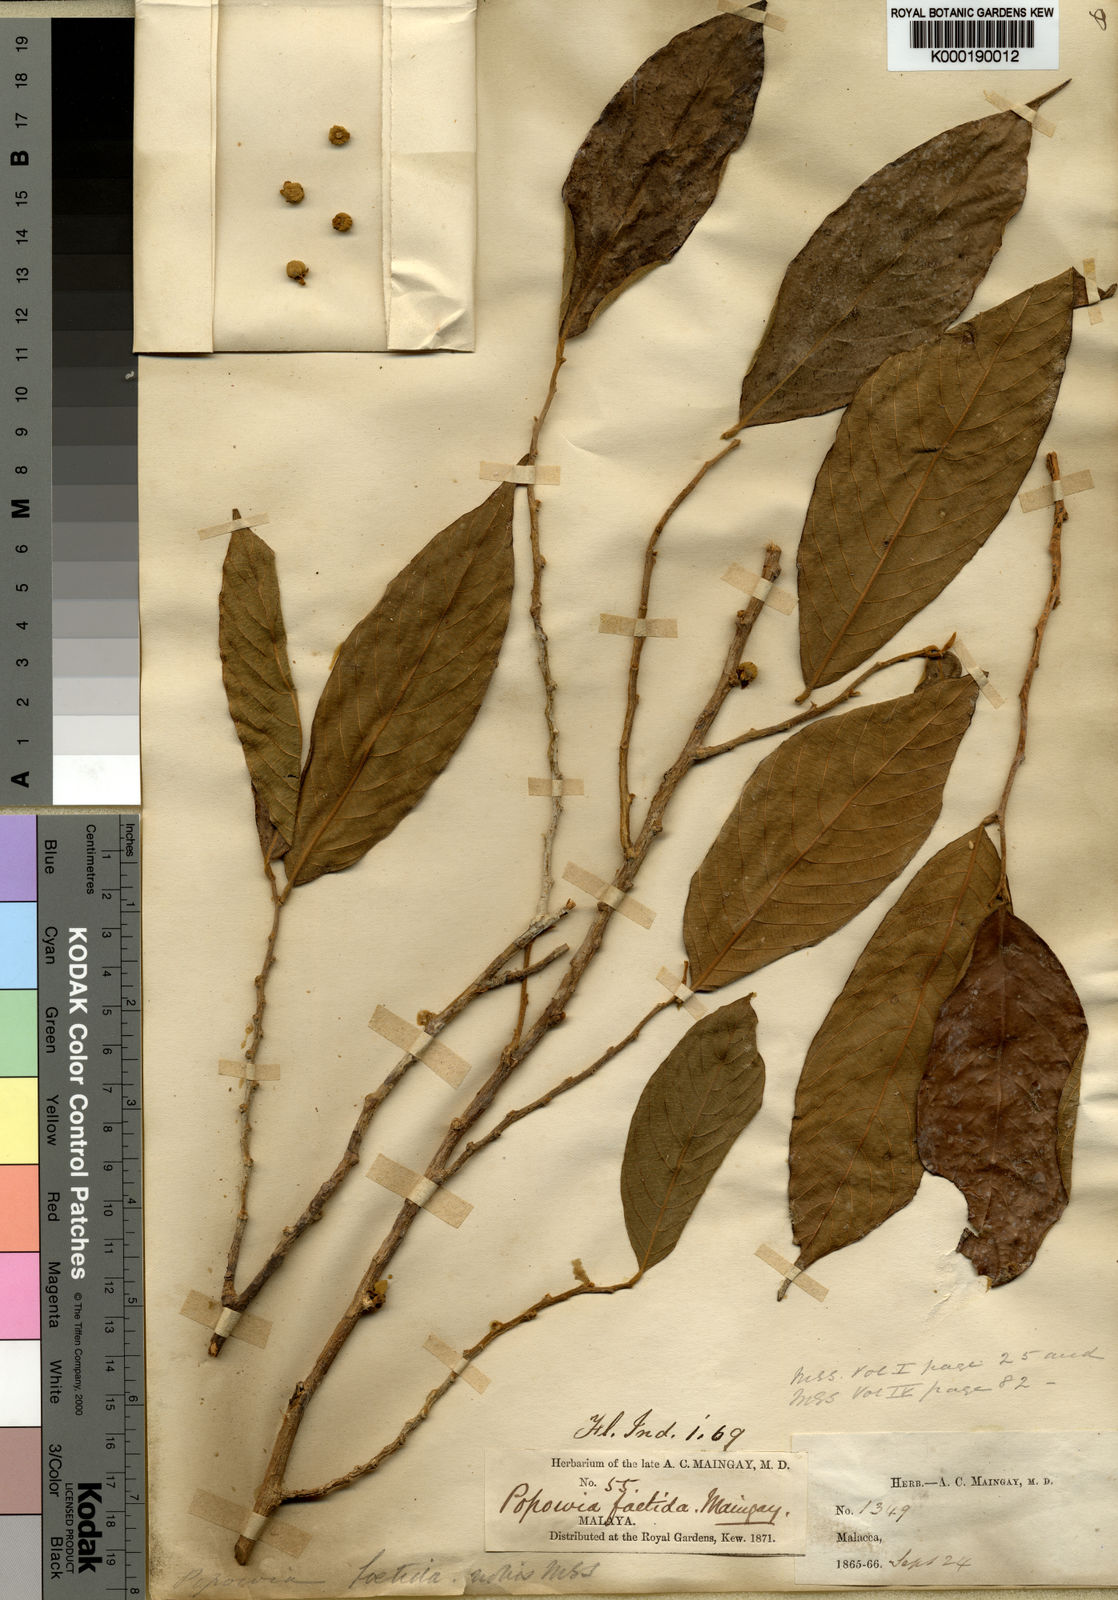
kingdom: Plantae
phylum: Tracheophyta
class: Magnoliopsida
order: Magnoliales
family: Annonaceae
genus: Neo-uvaria
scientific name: Neo-uvaria
